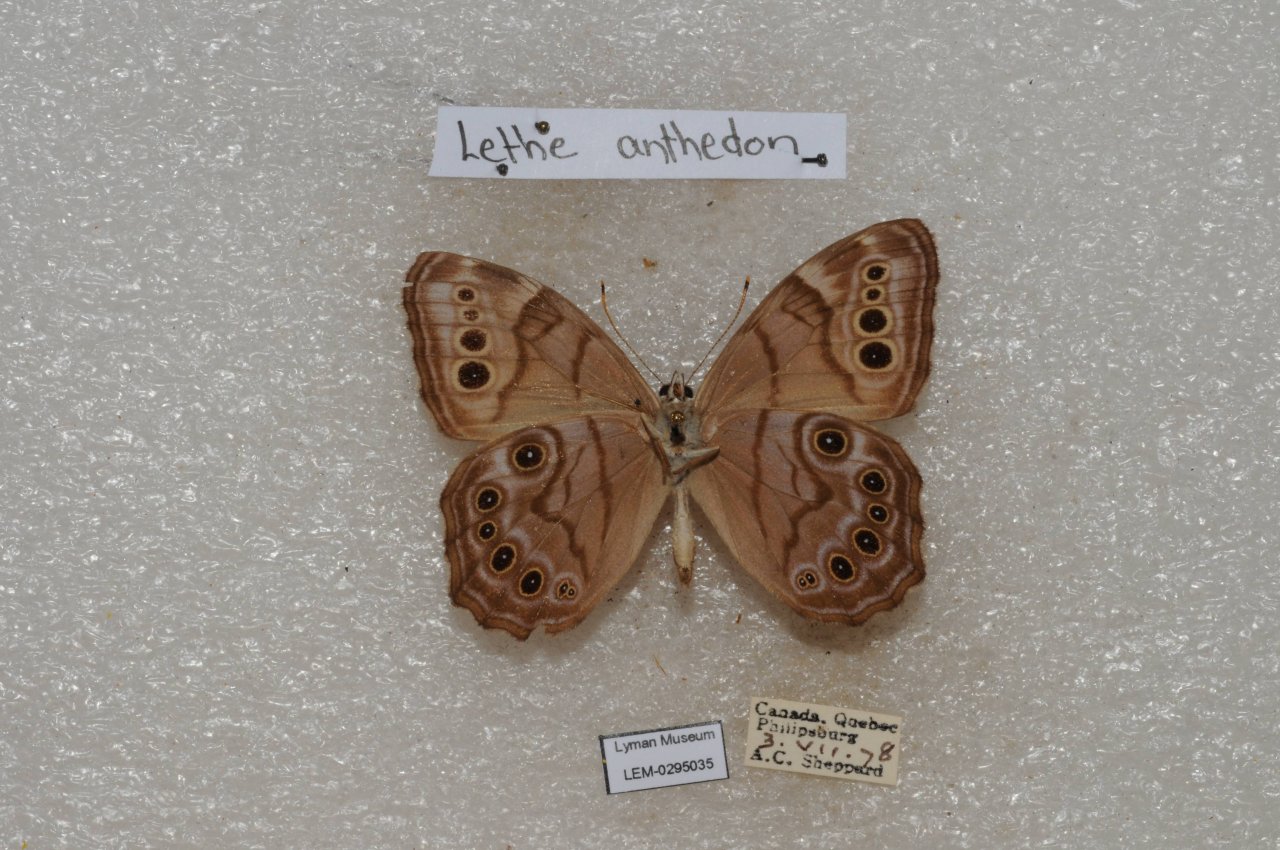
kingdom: Animalia
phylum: Arthropoda
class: Insecta
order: Lepidoptera
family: Nymphalidae
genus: Lethe
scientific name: Lethe anthedon
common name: Northern Pearly-Eye
